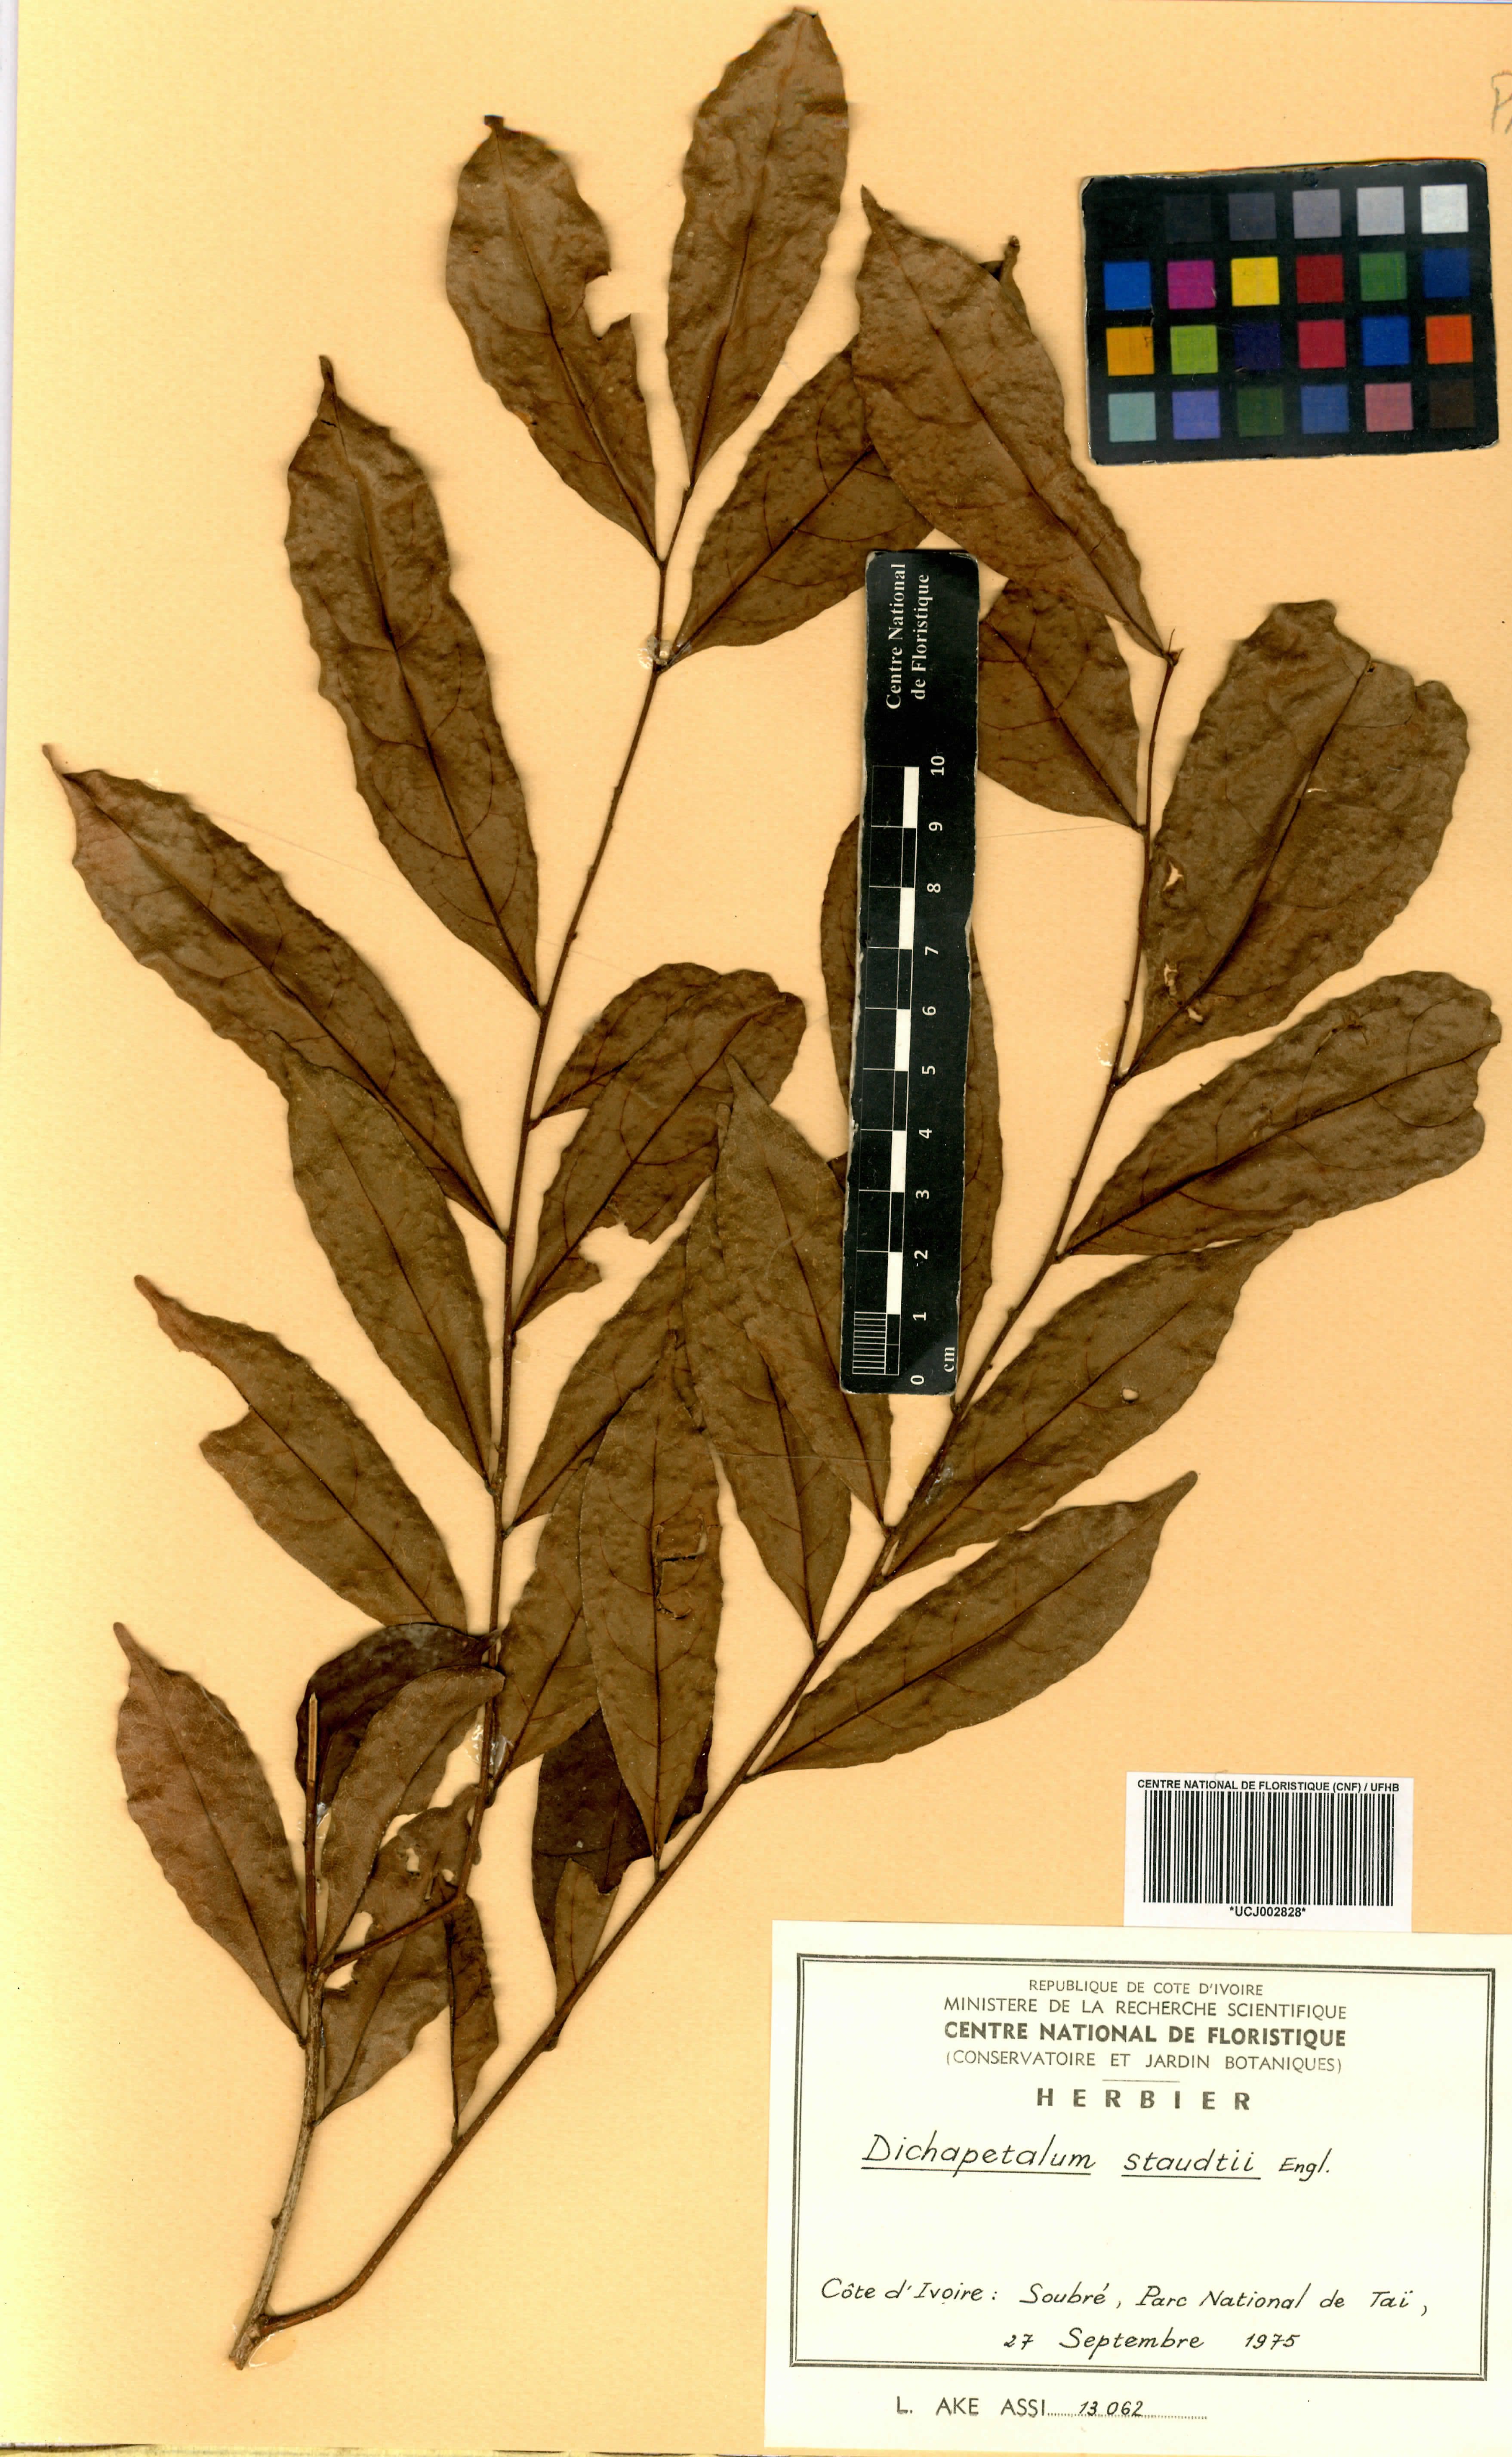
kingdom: Plantae
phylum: Tracheophyta
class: Magnoliopsida
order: Malpighiales
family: Dichapetalaceae
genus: Dichapetalum
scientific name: Dichapetalum staudtii
